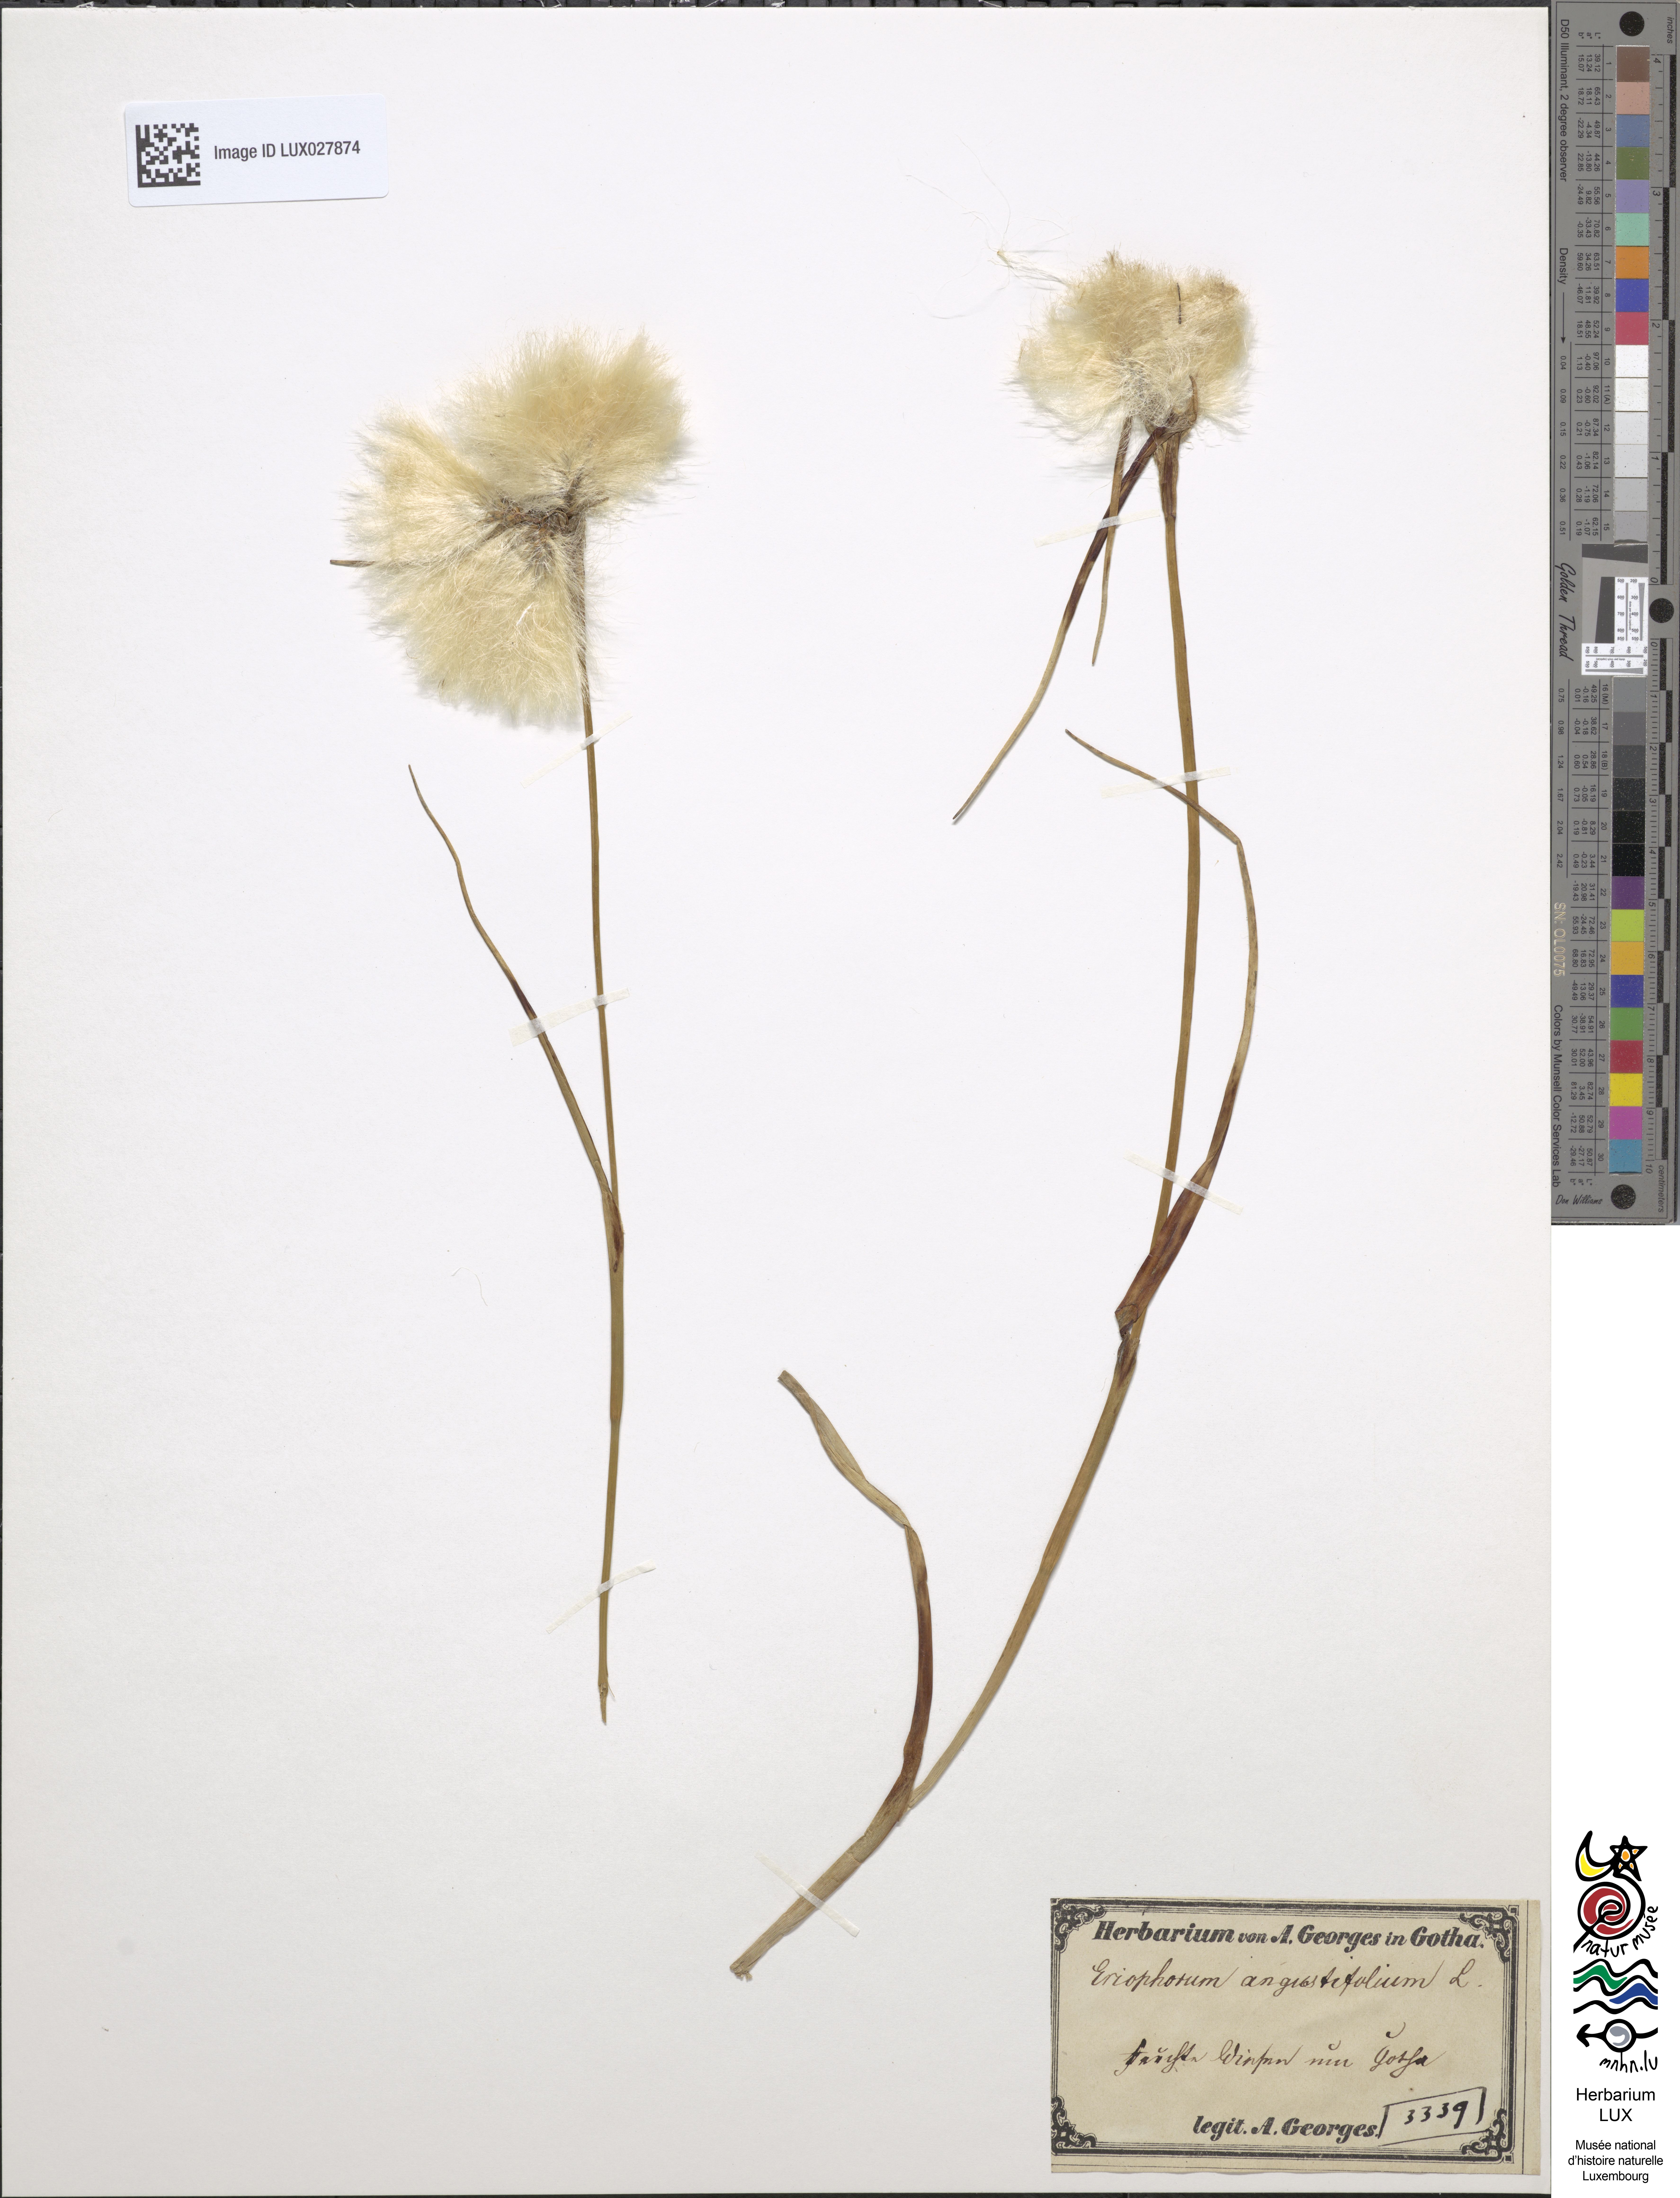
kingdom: Plantae
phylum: Tracheophyta
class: Liliopsida
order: Poales
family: Cyperaceae
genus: Eriophorum
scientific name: Eriophorum angustifolium
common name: Common cottongrass
